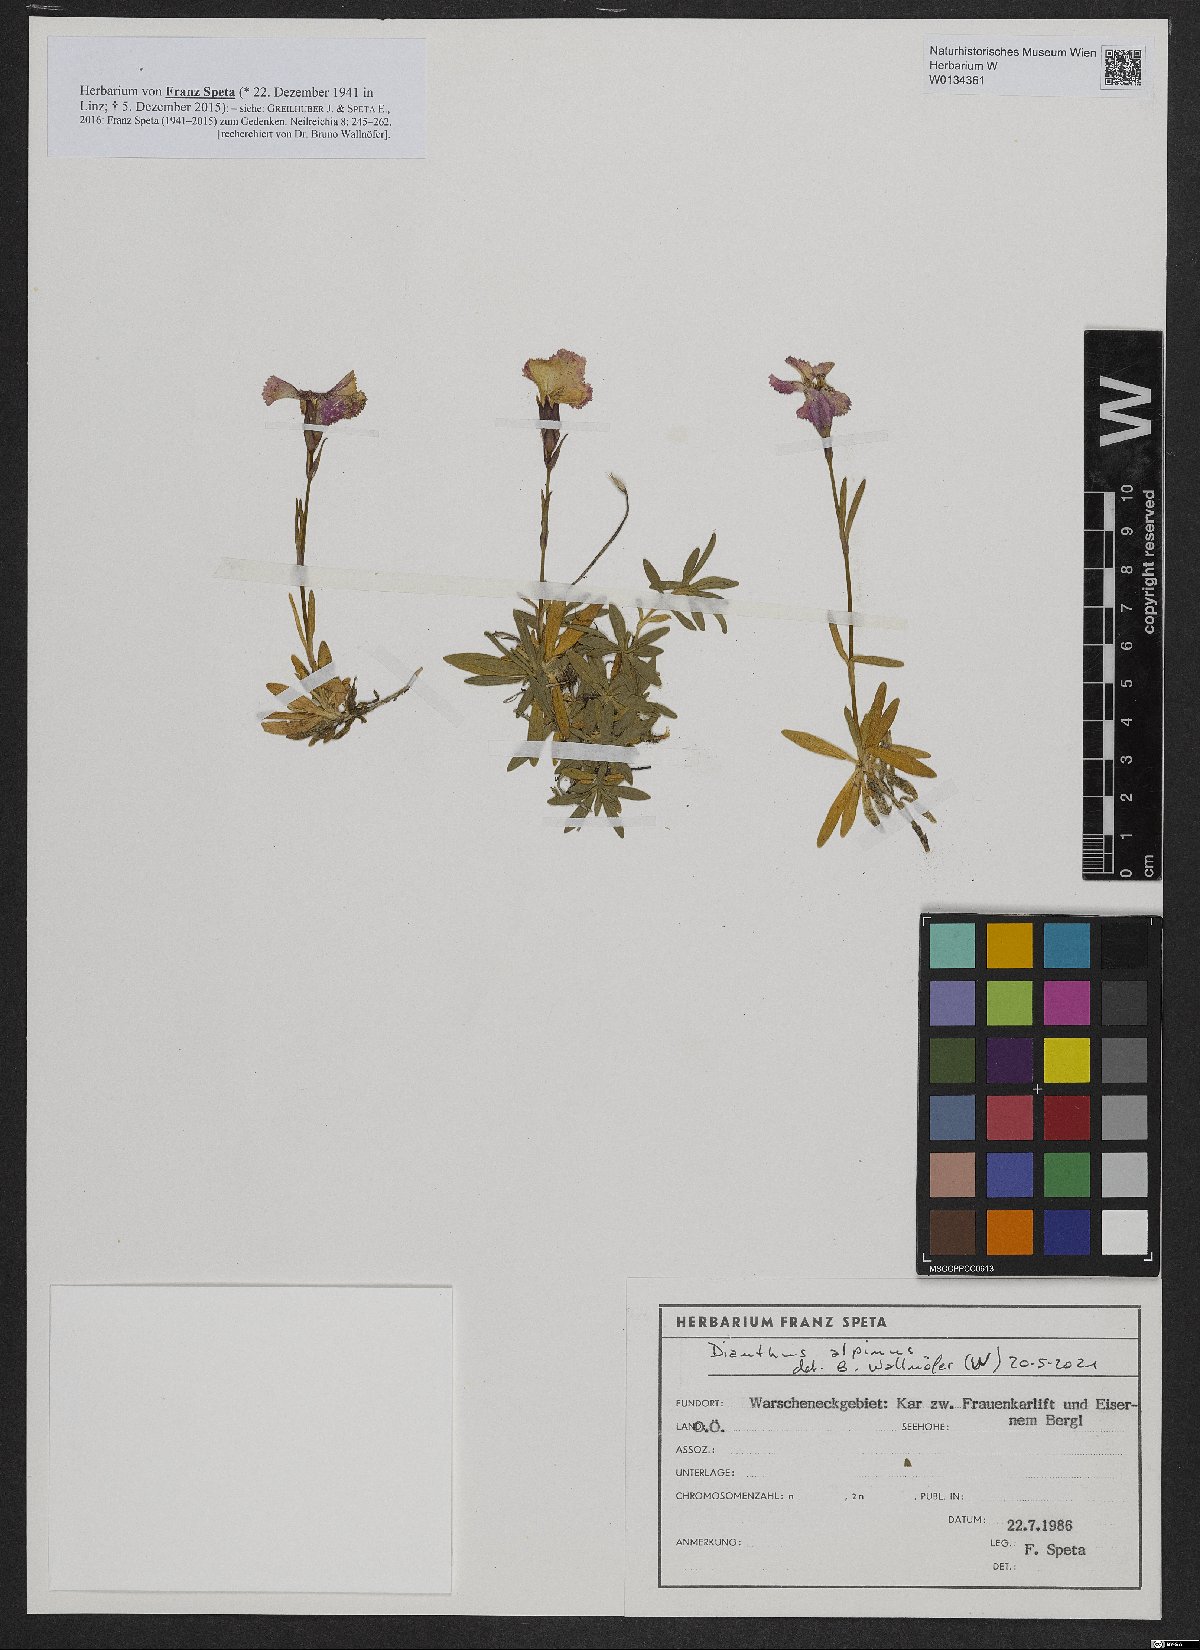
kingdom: Plantae
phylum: Tracheophyta
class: Magnoliopsida
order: Caryophyllales
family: Caryophyllaceae
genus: Dianthus
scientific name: Dianthus alpinus
